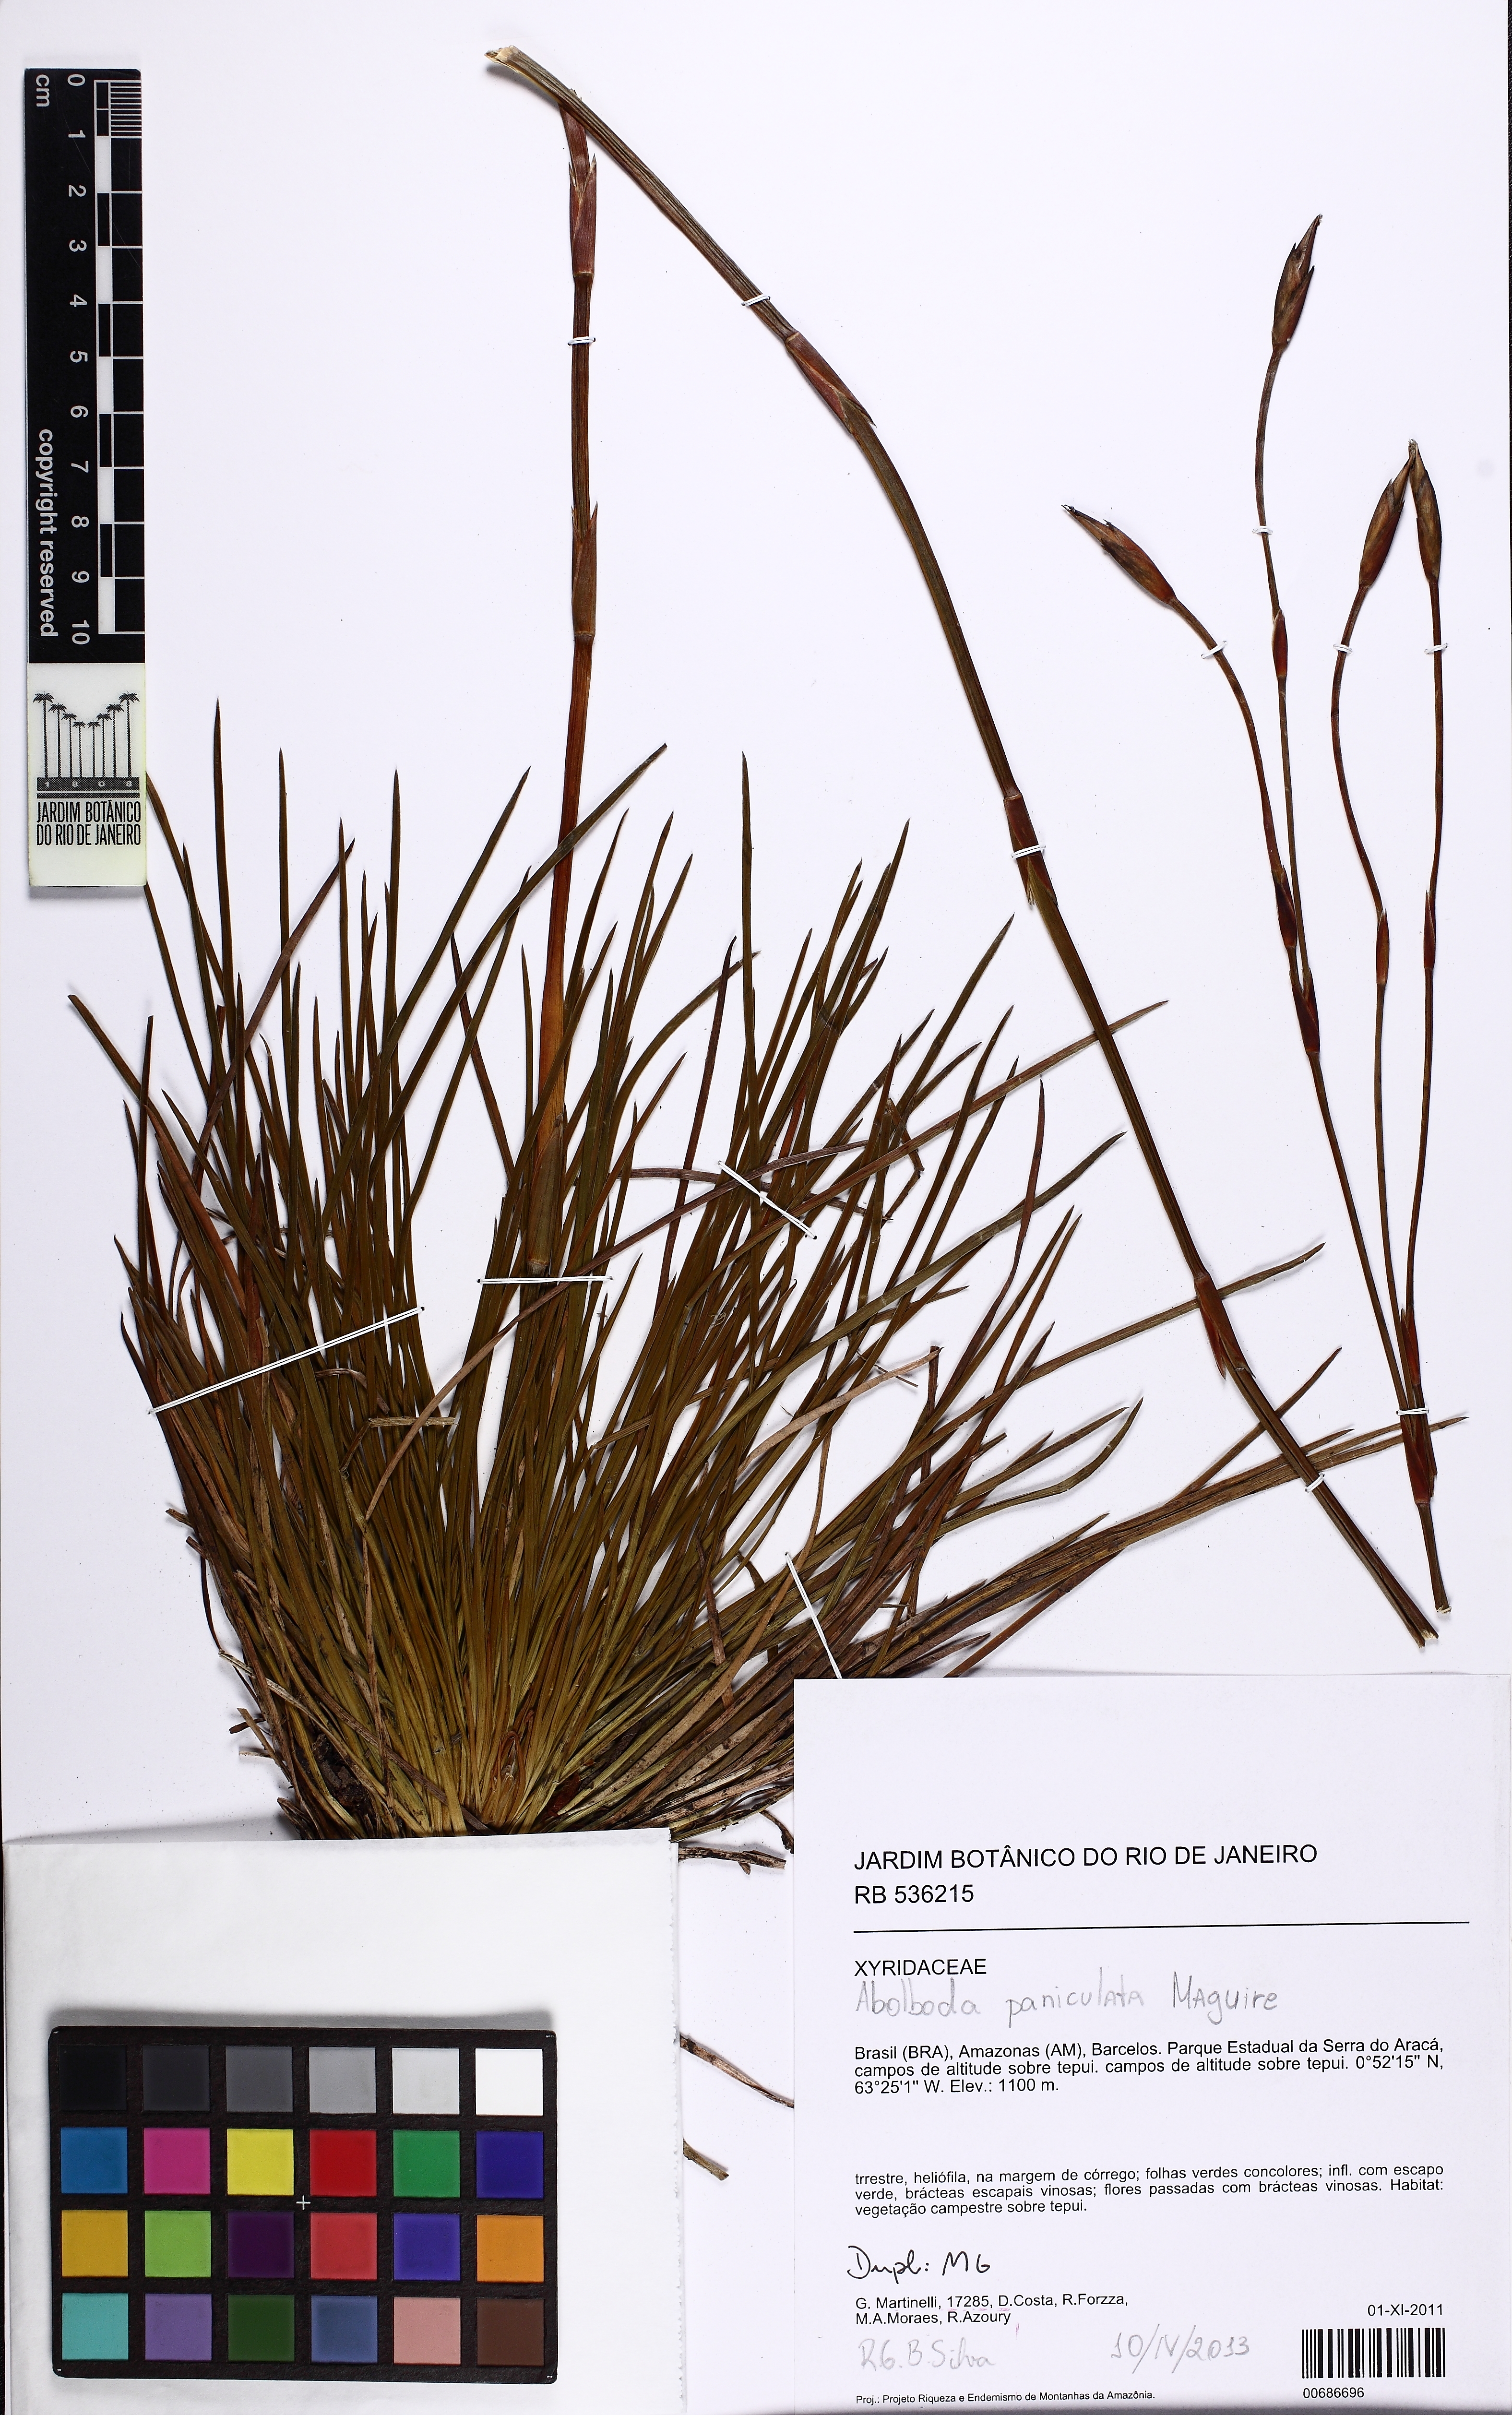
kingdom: Plantae
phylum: Tracheophyta
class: Liliopsida
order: Poales
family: Xyridaceae
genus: Abolboda
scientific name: Abolboda paniculata
